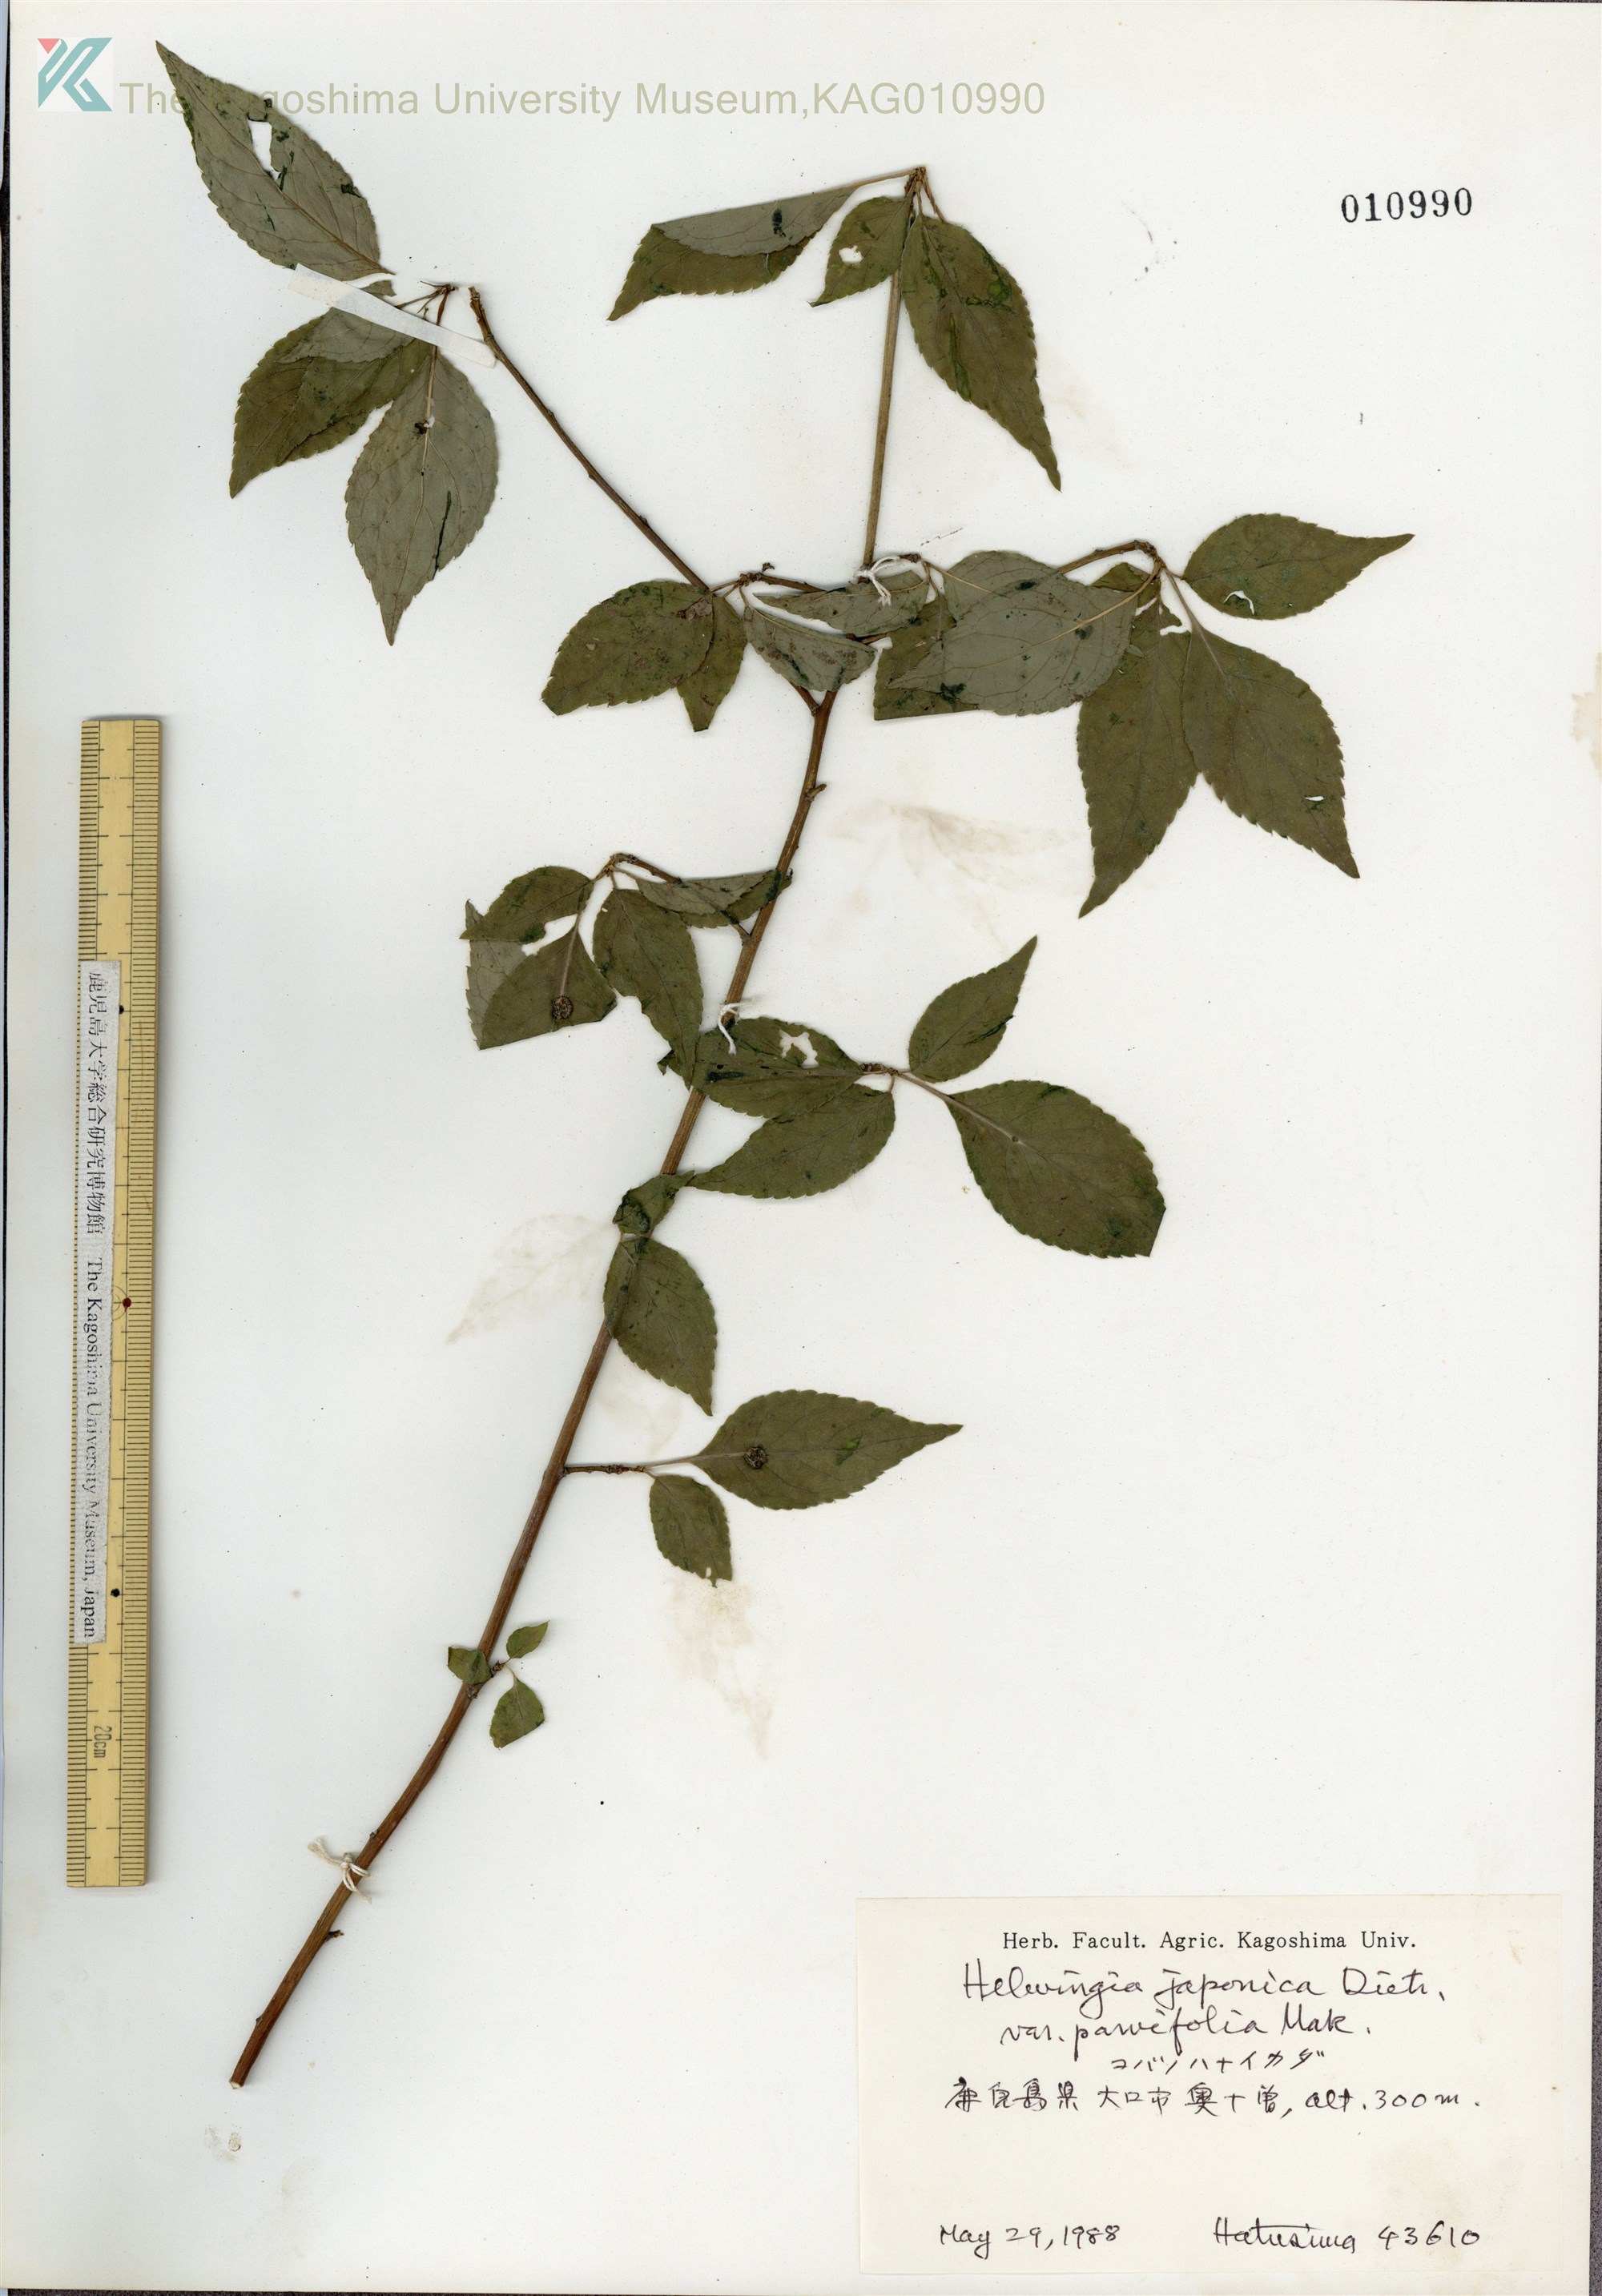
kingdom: Plantae
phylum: Tracheophyta
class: Magnoliopsida
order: Aquifoliales
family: Helwingiaceae
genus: Helwingia
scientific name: Helwingia japonica
